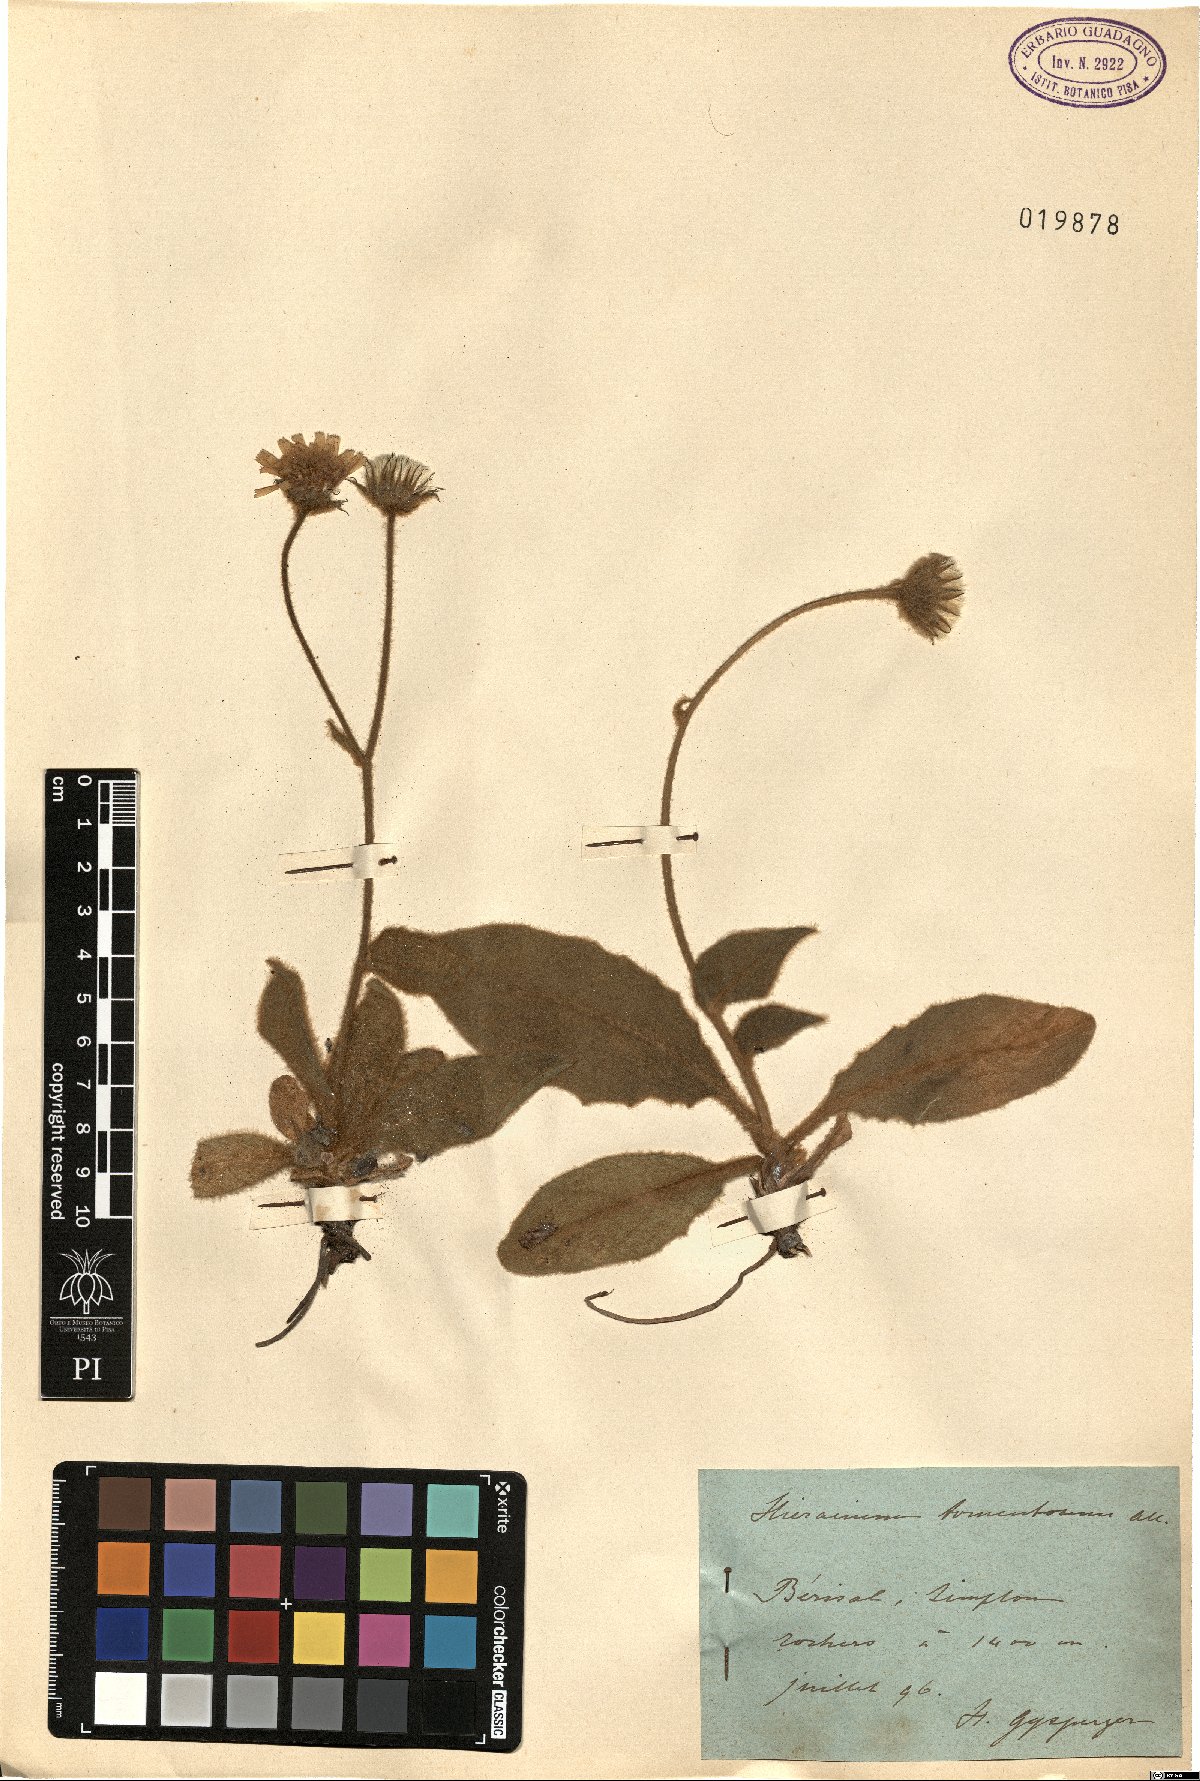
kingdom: Plantae
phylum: Tracheophyta
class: Magnoliopsida
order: Asterales
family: Asteraceae
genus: Hieracium
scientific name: Hieracium tomentosum
